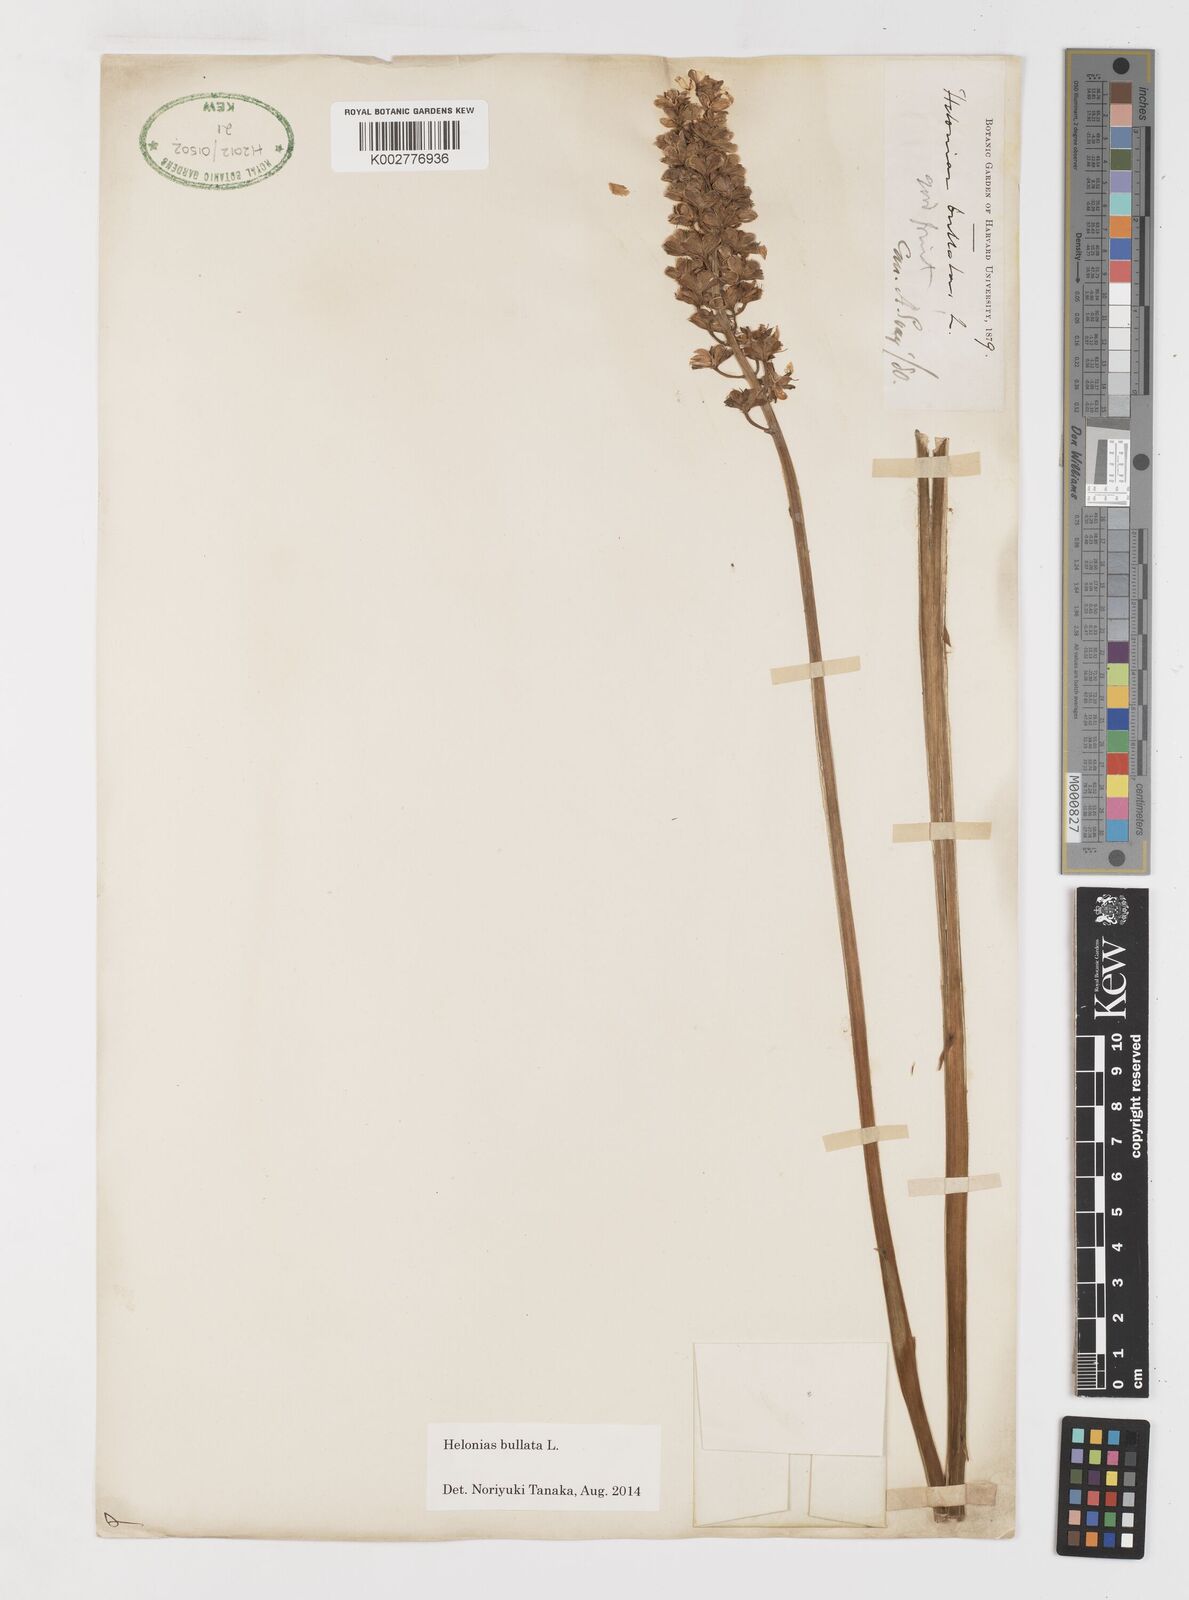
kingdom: Plantae
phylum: Tracheophyta
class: Liliopsida
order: Liliales
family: Melanthiaceae
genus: Helonias
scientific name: Helonias bullata
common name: Swamp-pink
